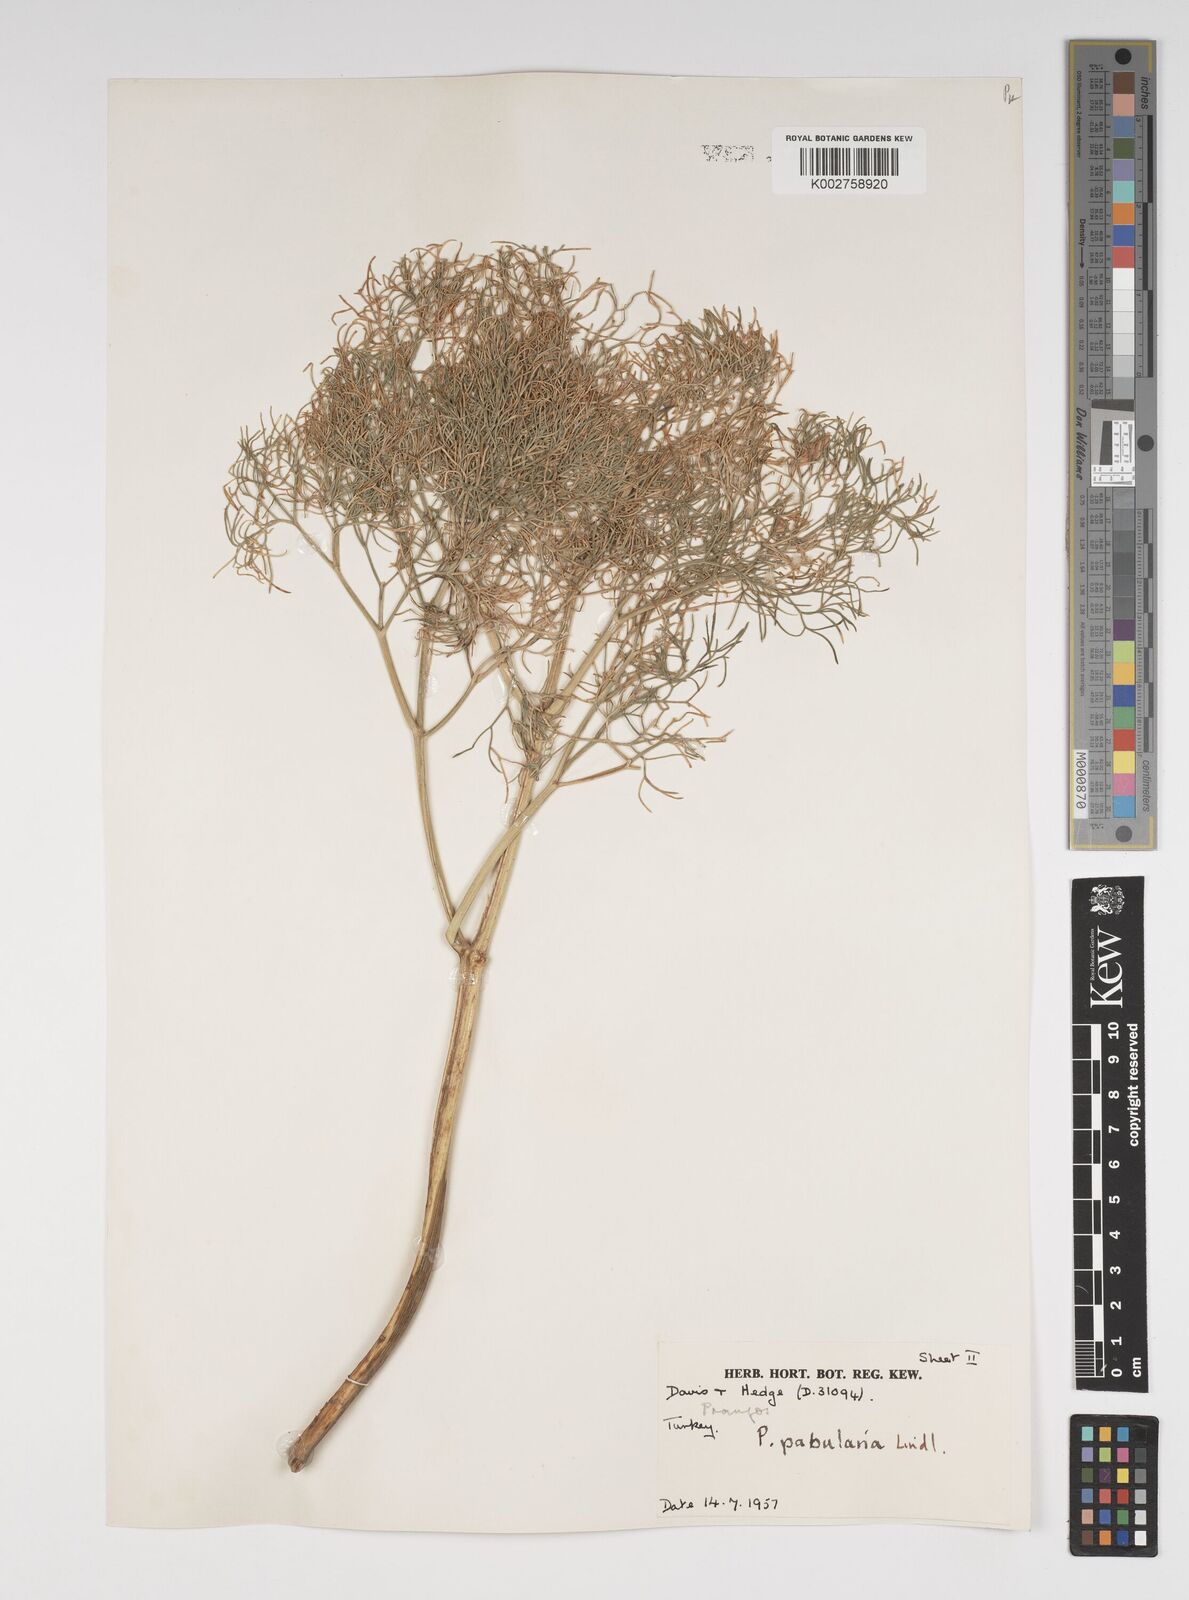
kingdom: Plantae
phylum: Tracheophyta
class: Magnoliopsida
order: Apiales
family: Apiaceae
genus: Prangos
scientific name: Prangos pabularia
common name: Yugan
